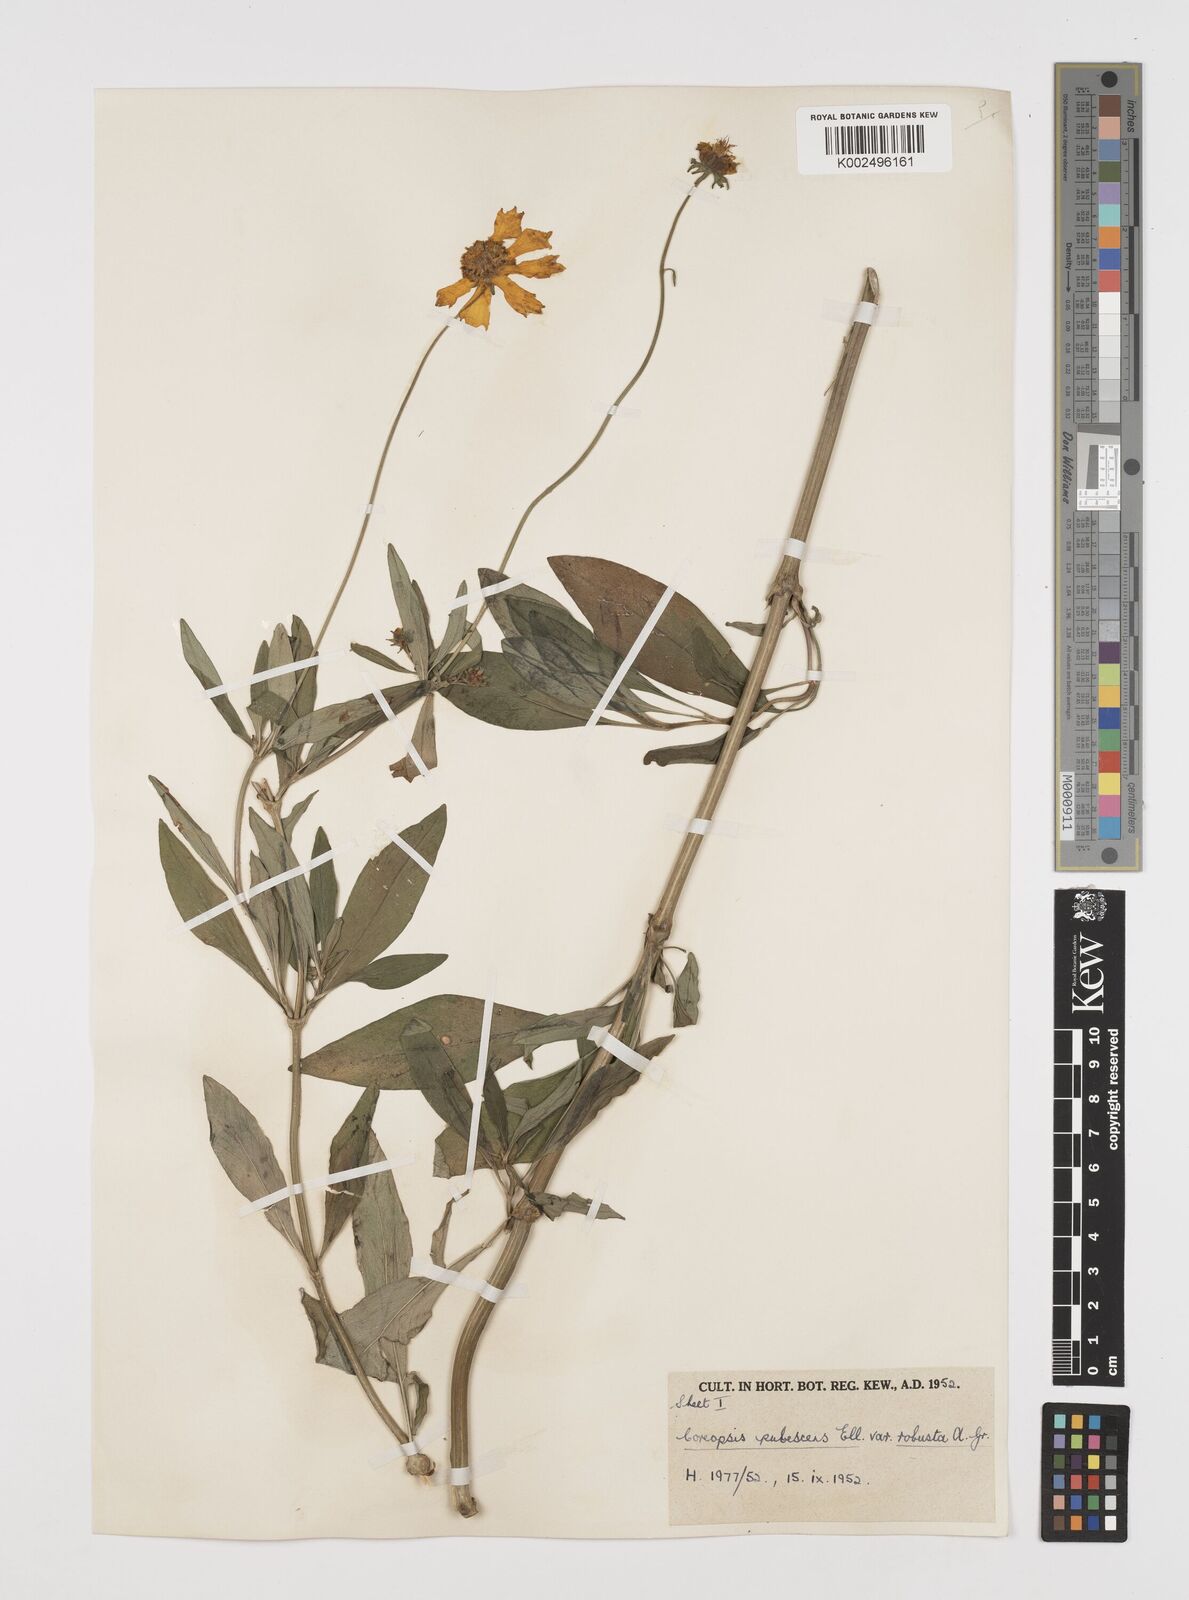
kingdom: Plantae
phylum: Tracheophyta
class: Magnoliopsida
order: Asterales
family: Asteraceae
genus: Coreopsis
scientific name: Coreopsis pubescens
